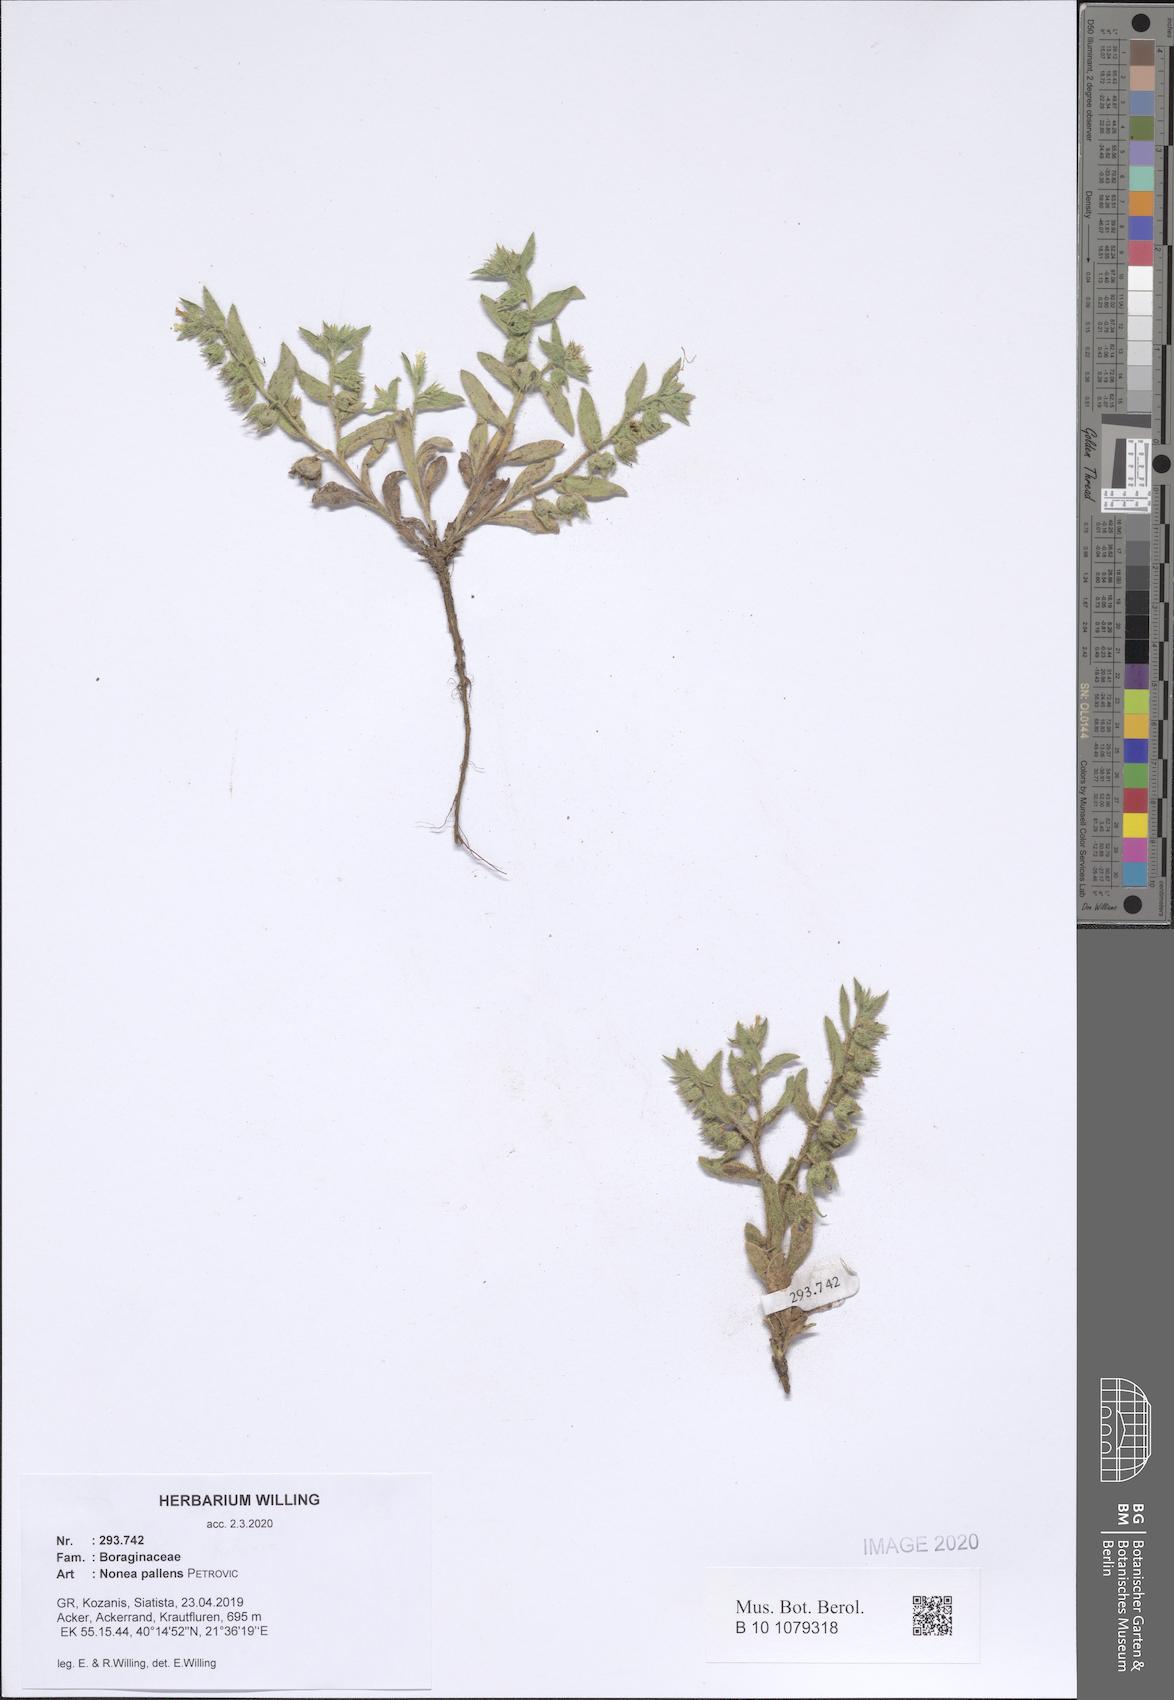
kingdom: Plantae
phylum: Tracheophyta
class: Magnoliopsida
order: Boraginales
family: Boraginaceae
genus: Nonea
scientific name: Nonea pallens
